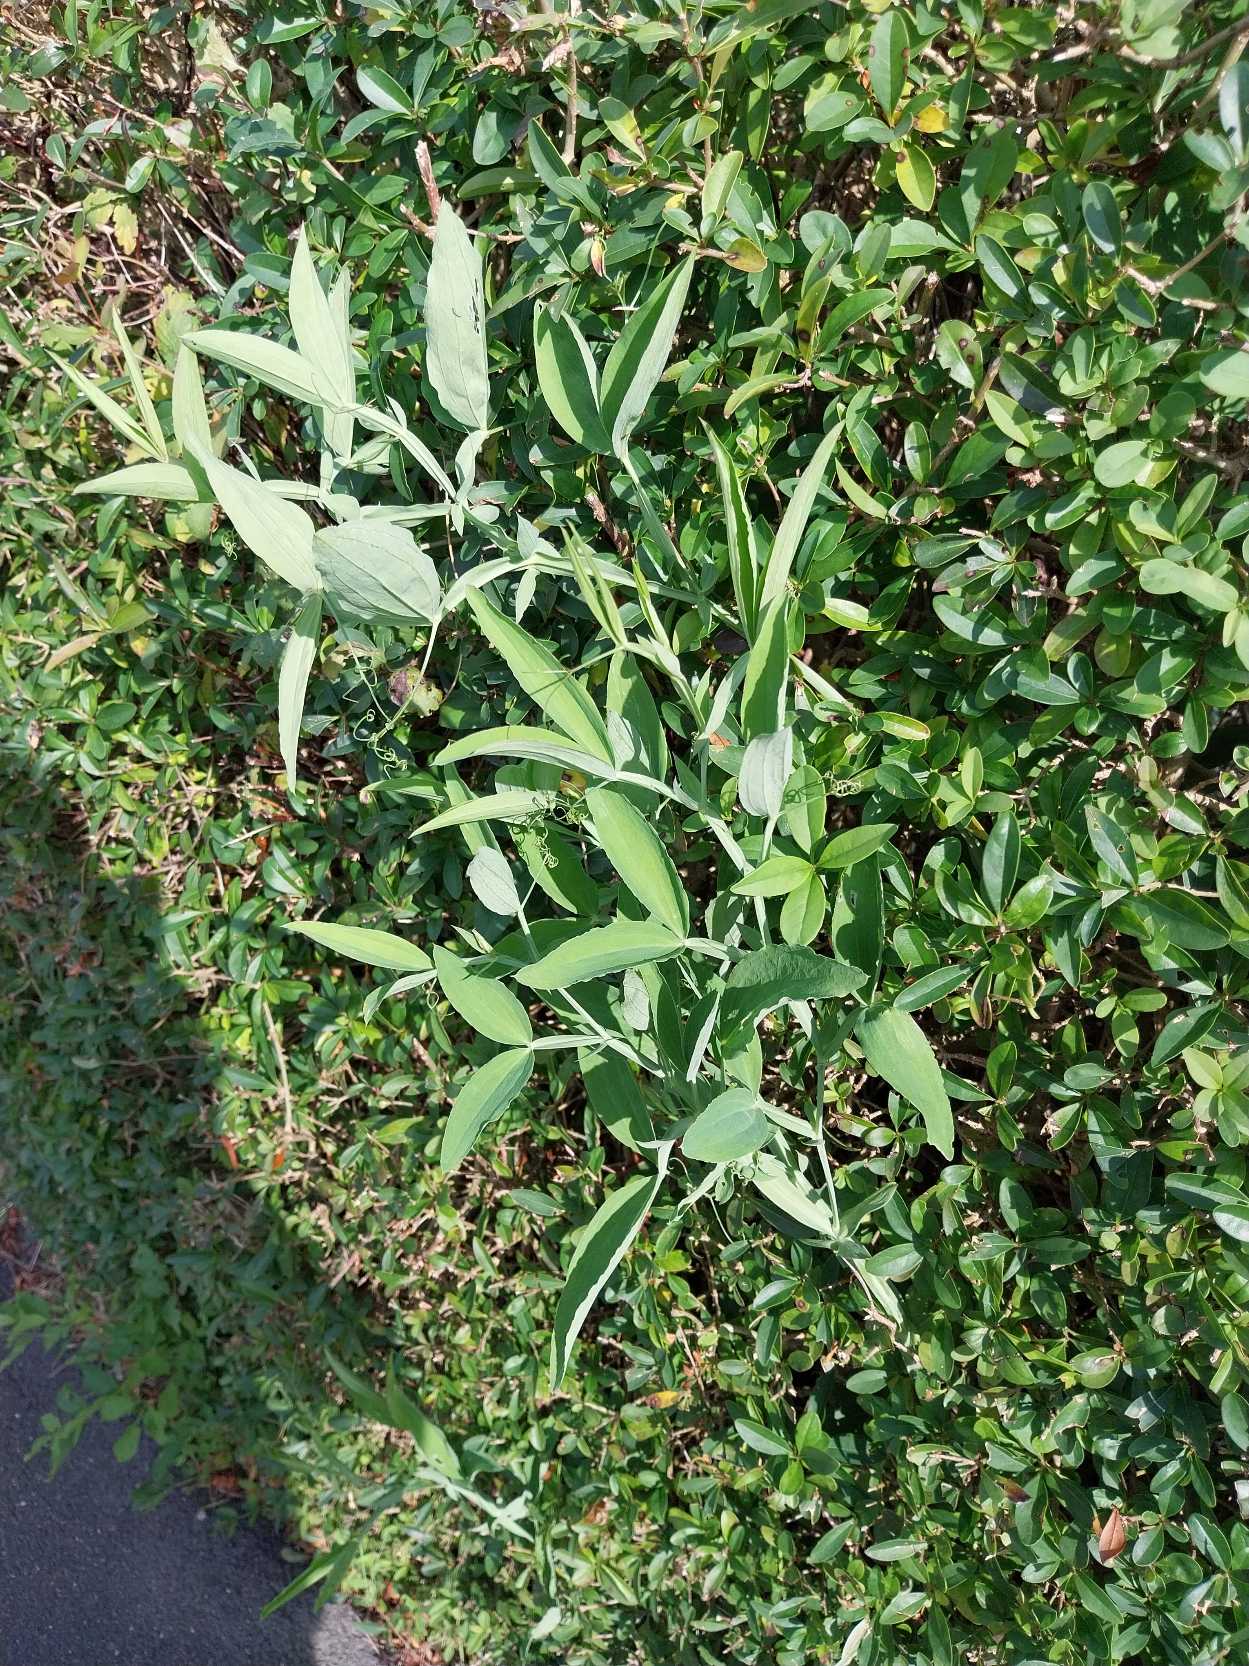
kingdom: Plantae
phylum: Tracheophyta
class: Magnoliopsida
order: Fabales
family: Fabaceae
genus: Lathyrus
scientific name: Lathyrus latifolius
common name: Flerårig ærteblomst
